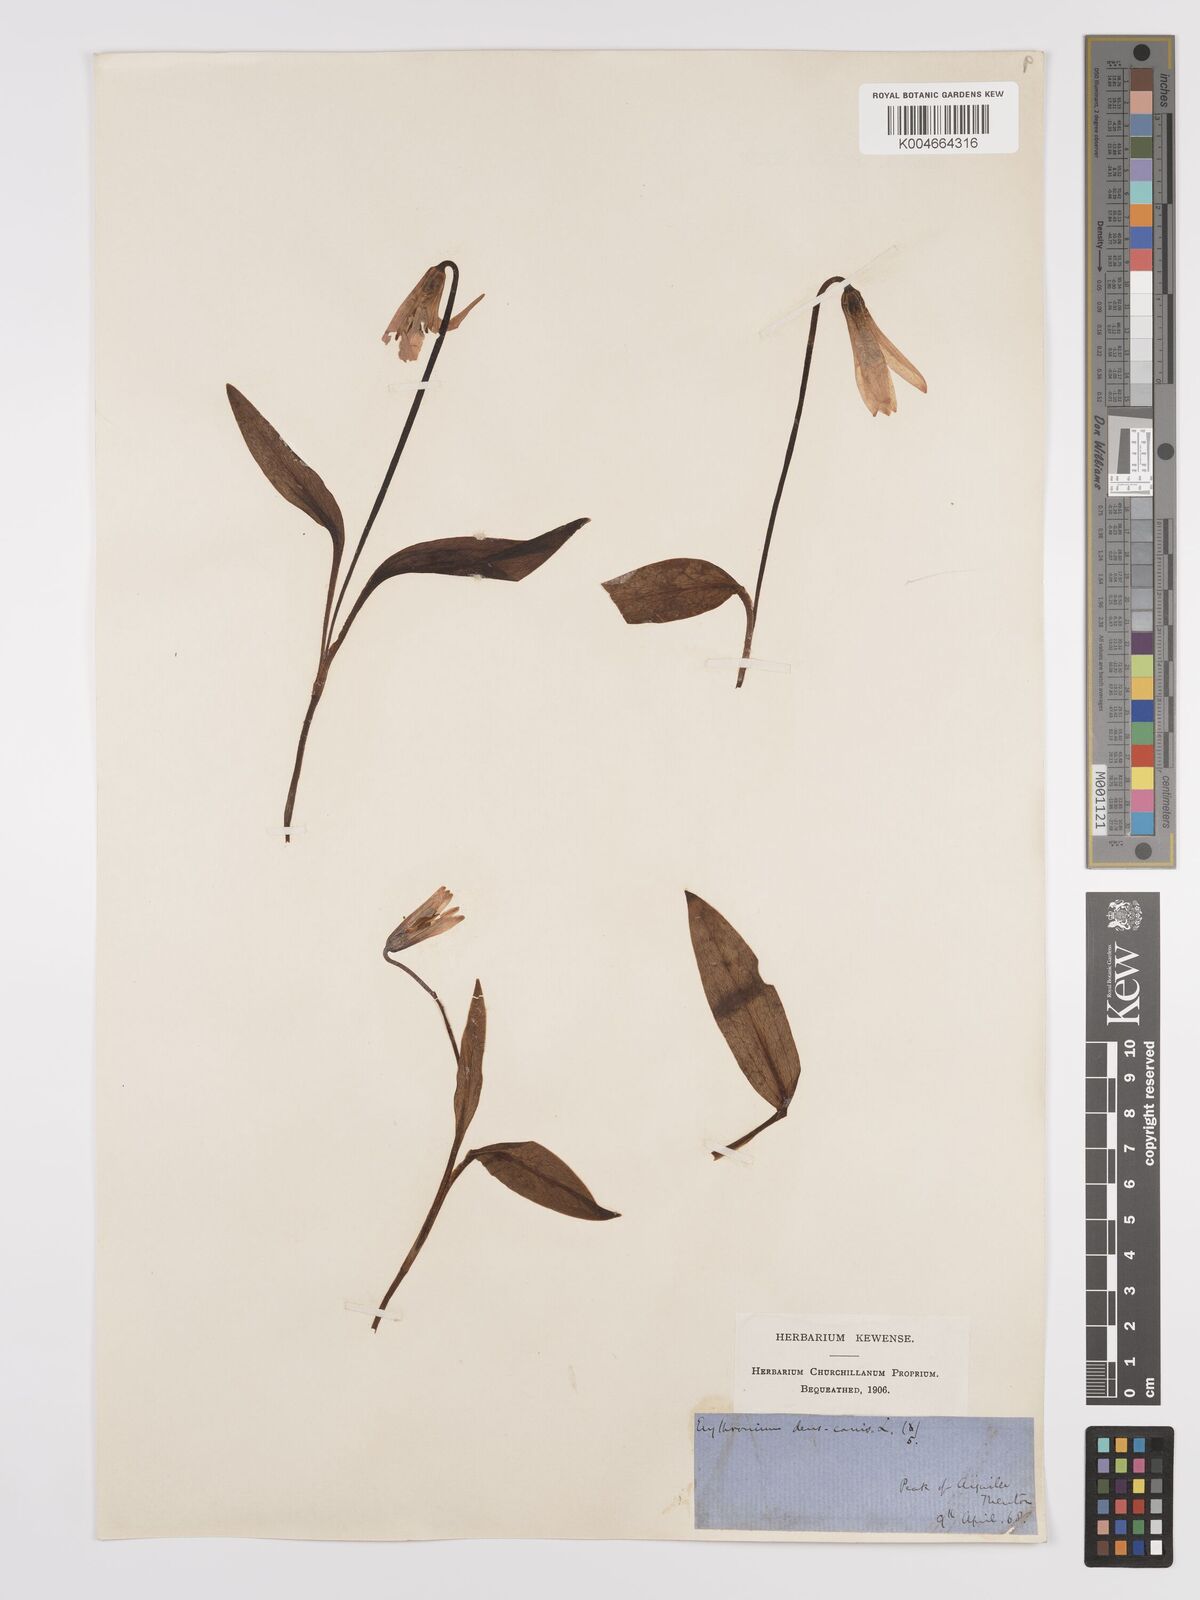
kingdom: Plantae
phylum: Tracheophyta
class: Liliopsida
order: Liliales
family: Liliaceae
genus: Erythronium
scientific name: Erythronium dens-canis
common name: Dog's-tooth-violet
